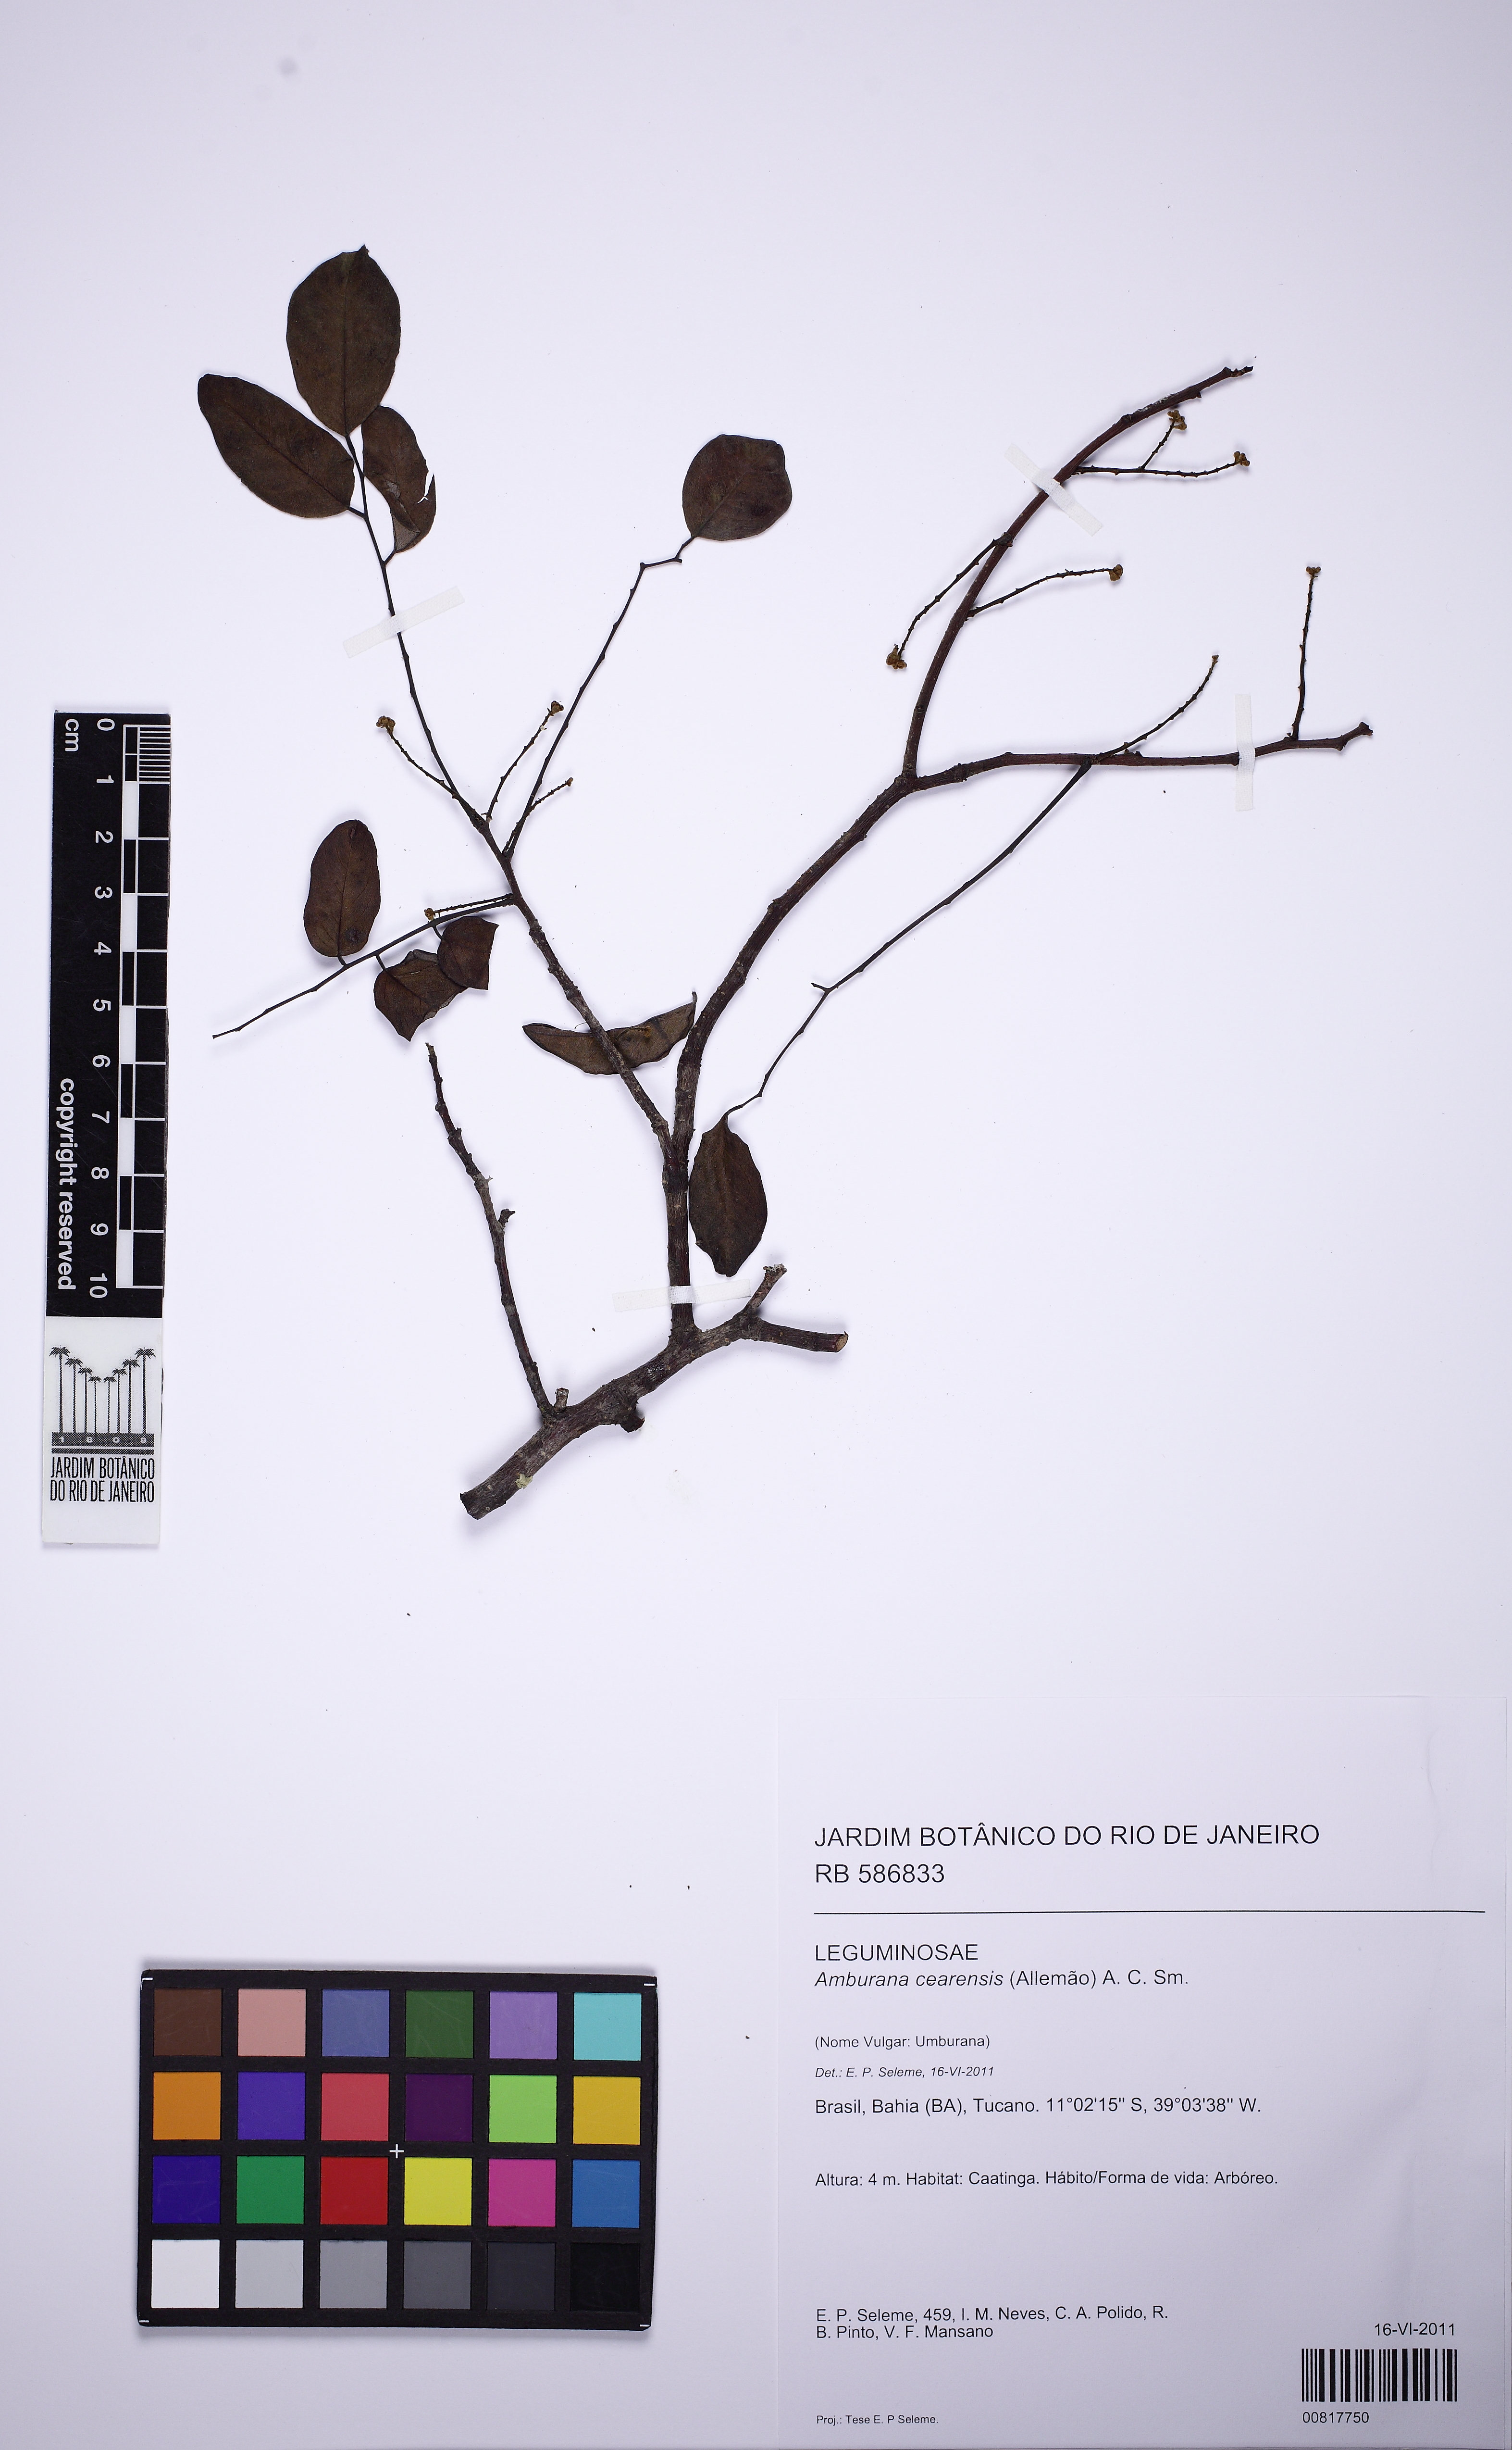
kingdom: Plantae
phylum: Tracheophyta
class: Magnoliopsida
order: Fabales
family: Fabaceae
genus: Amburana
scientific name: Amburana cearensis
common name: Cerejeira
